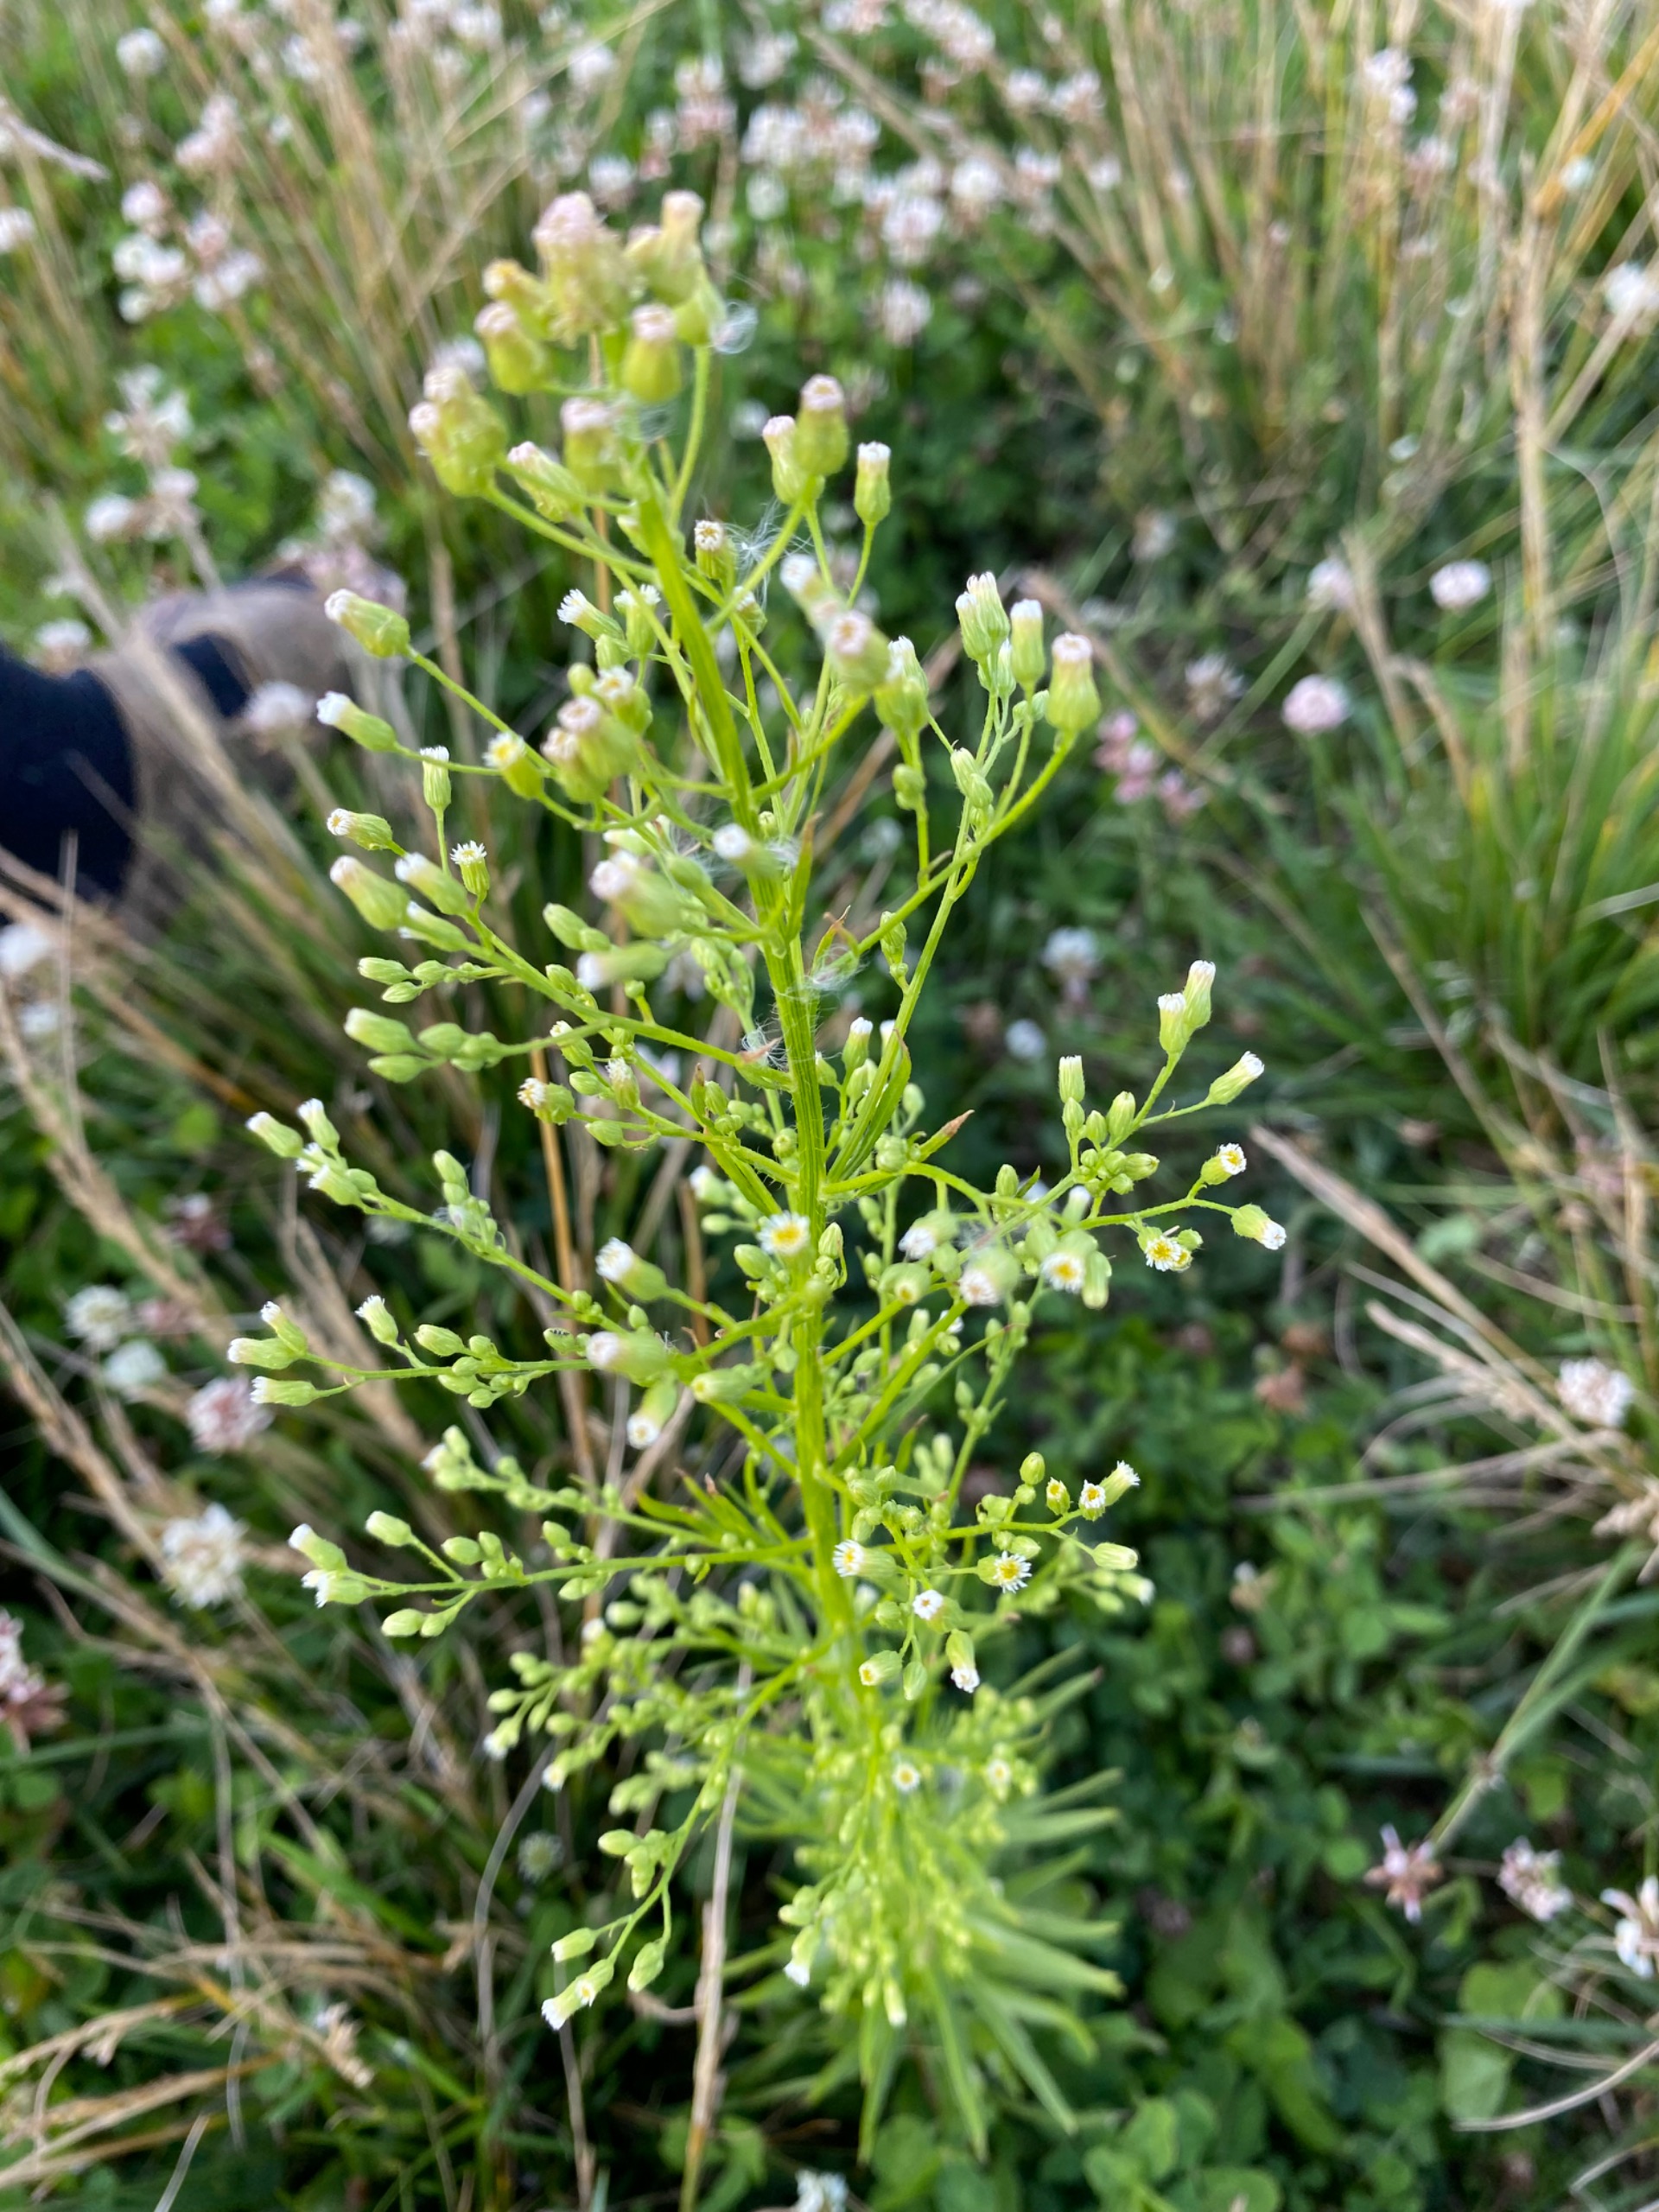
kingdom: Plantae
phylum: Tracheophyta
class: Magnoliopsida
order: Asterales
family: Asteraceae
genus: Erigeron
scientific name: Erigeron canadensis
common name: Kanadisk bakkestjerne
